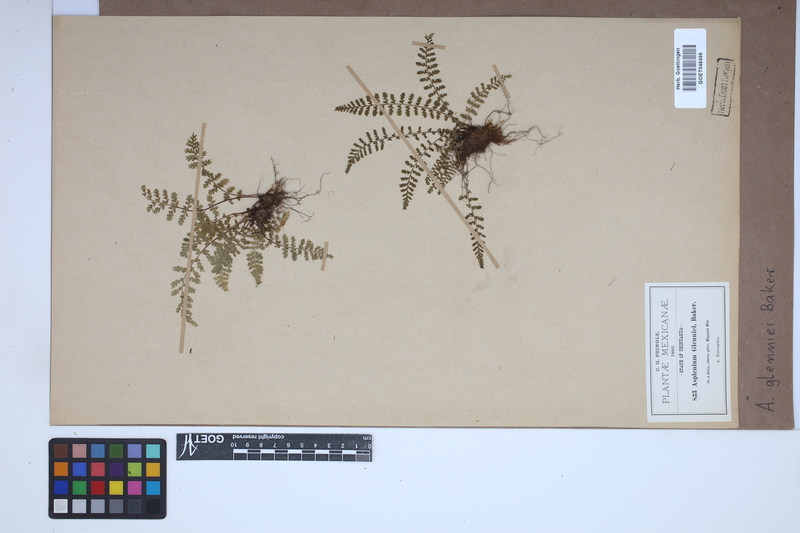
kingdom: Plantae
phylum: Tracheophyta
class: Polypodiopsida
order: Polypodiales
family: Aspleniaceae
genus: Asplenium
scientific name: Asplenium exiguum
